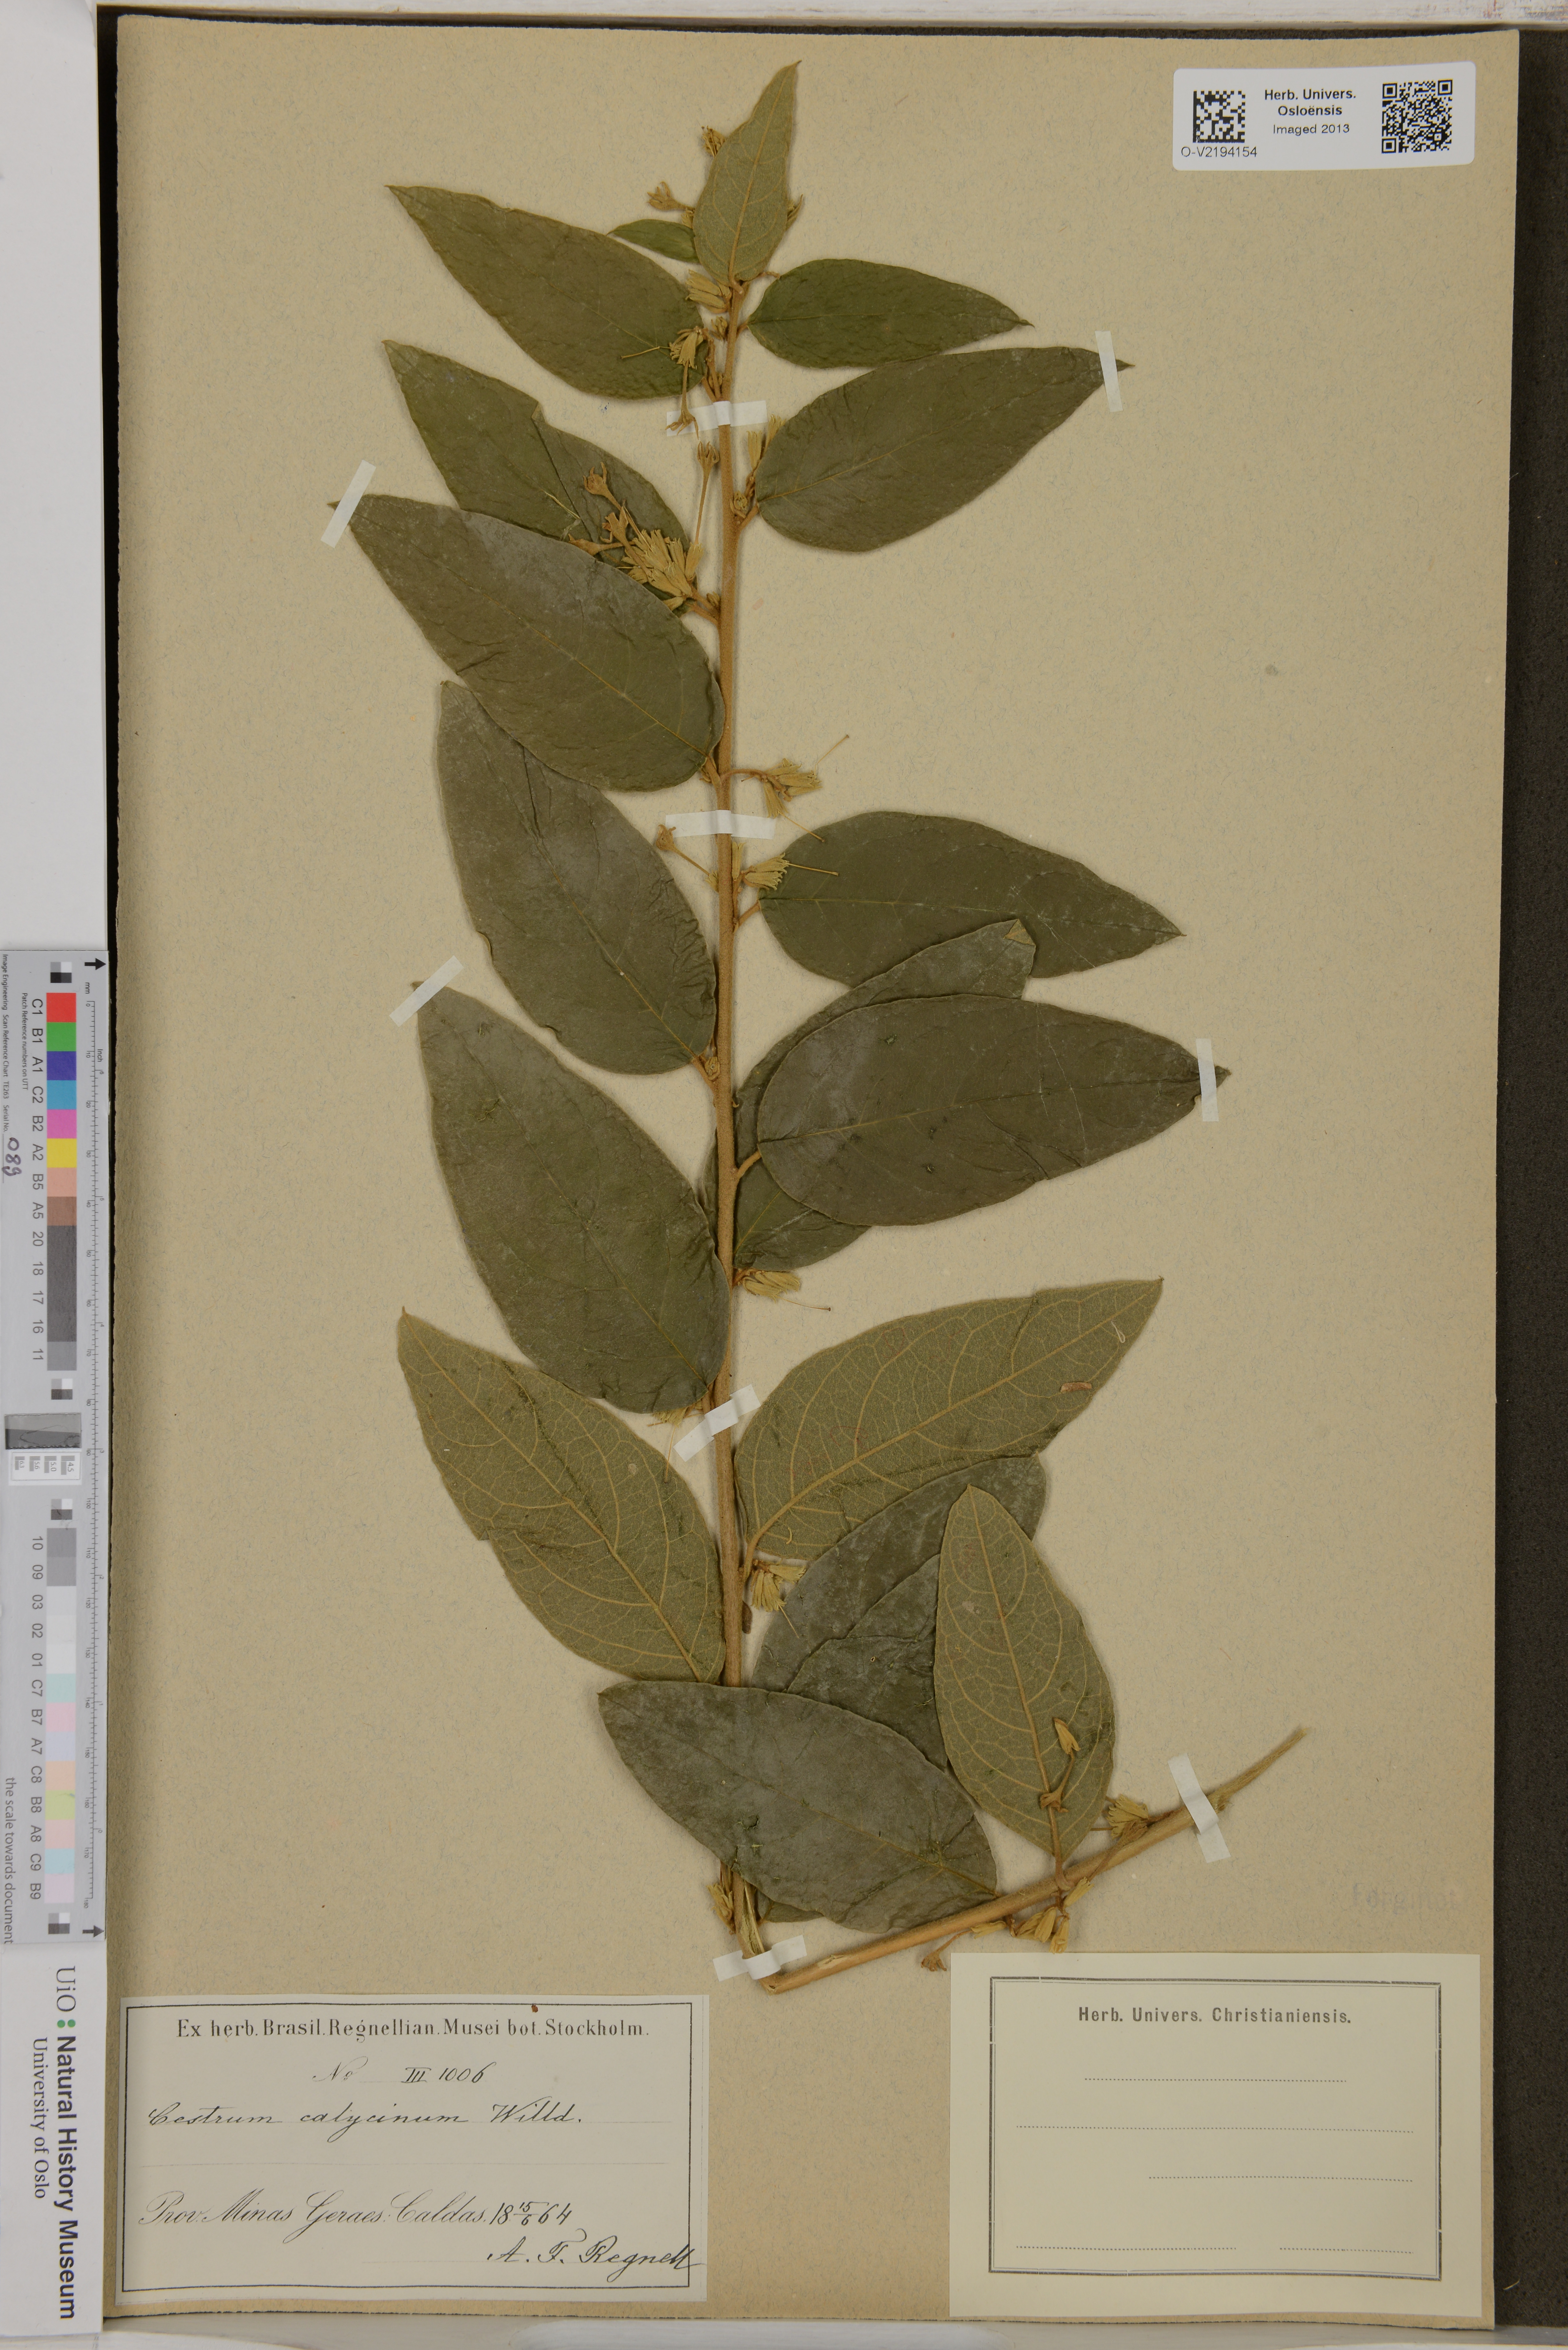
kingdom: Plantae
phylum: Tracheophyta
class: Magnoliopsida
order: Solanales
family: Solanaceae
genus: Cestrum
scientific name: Cestrum strigillatum
